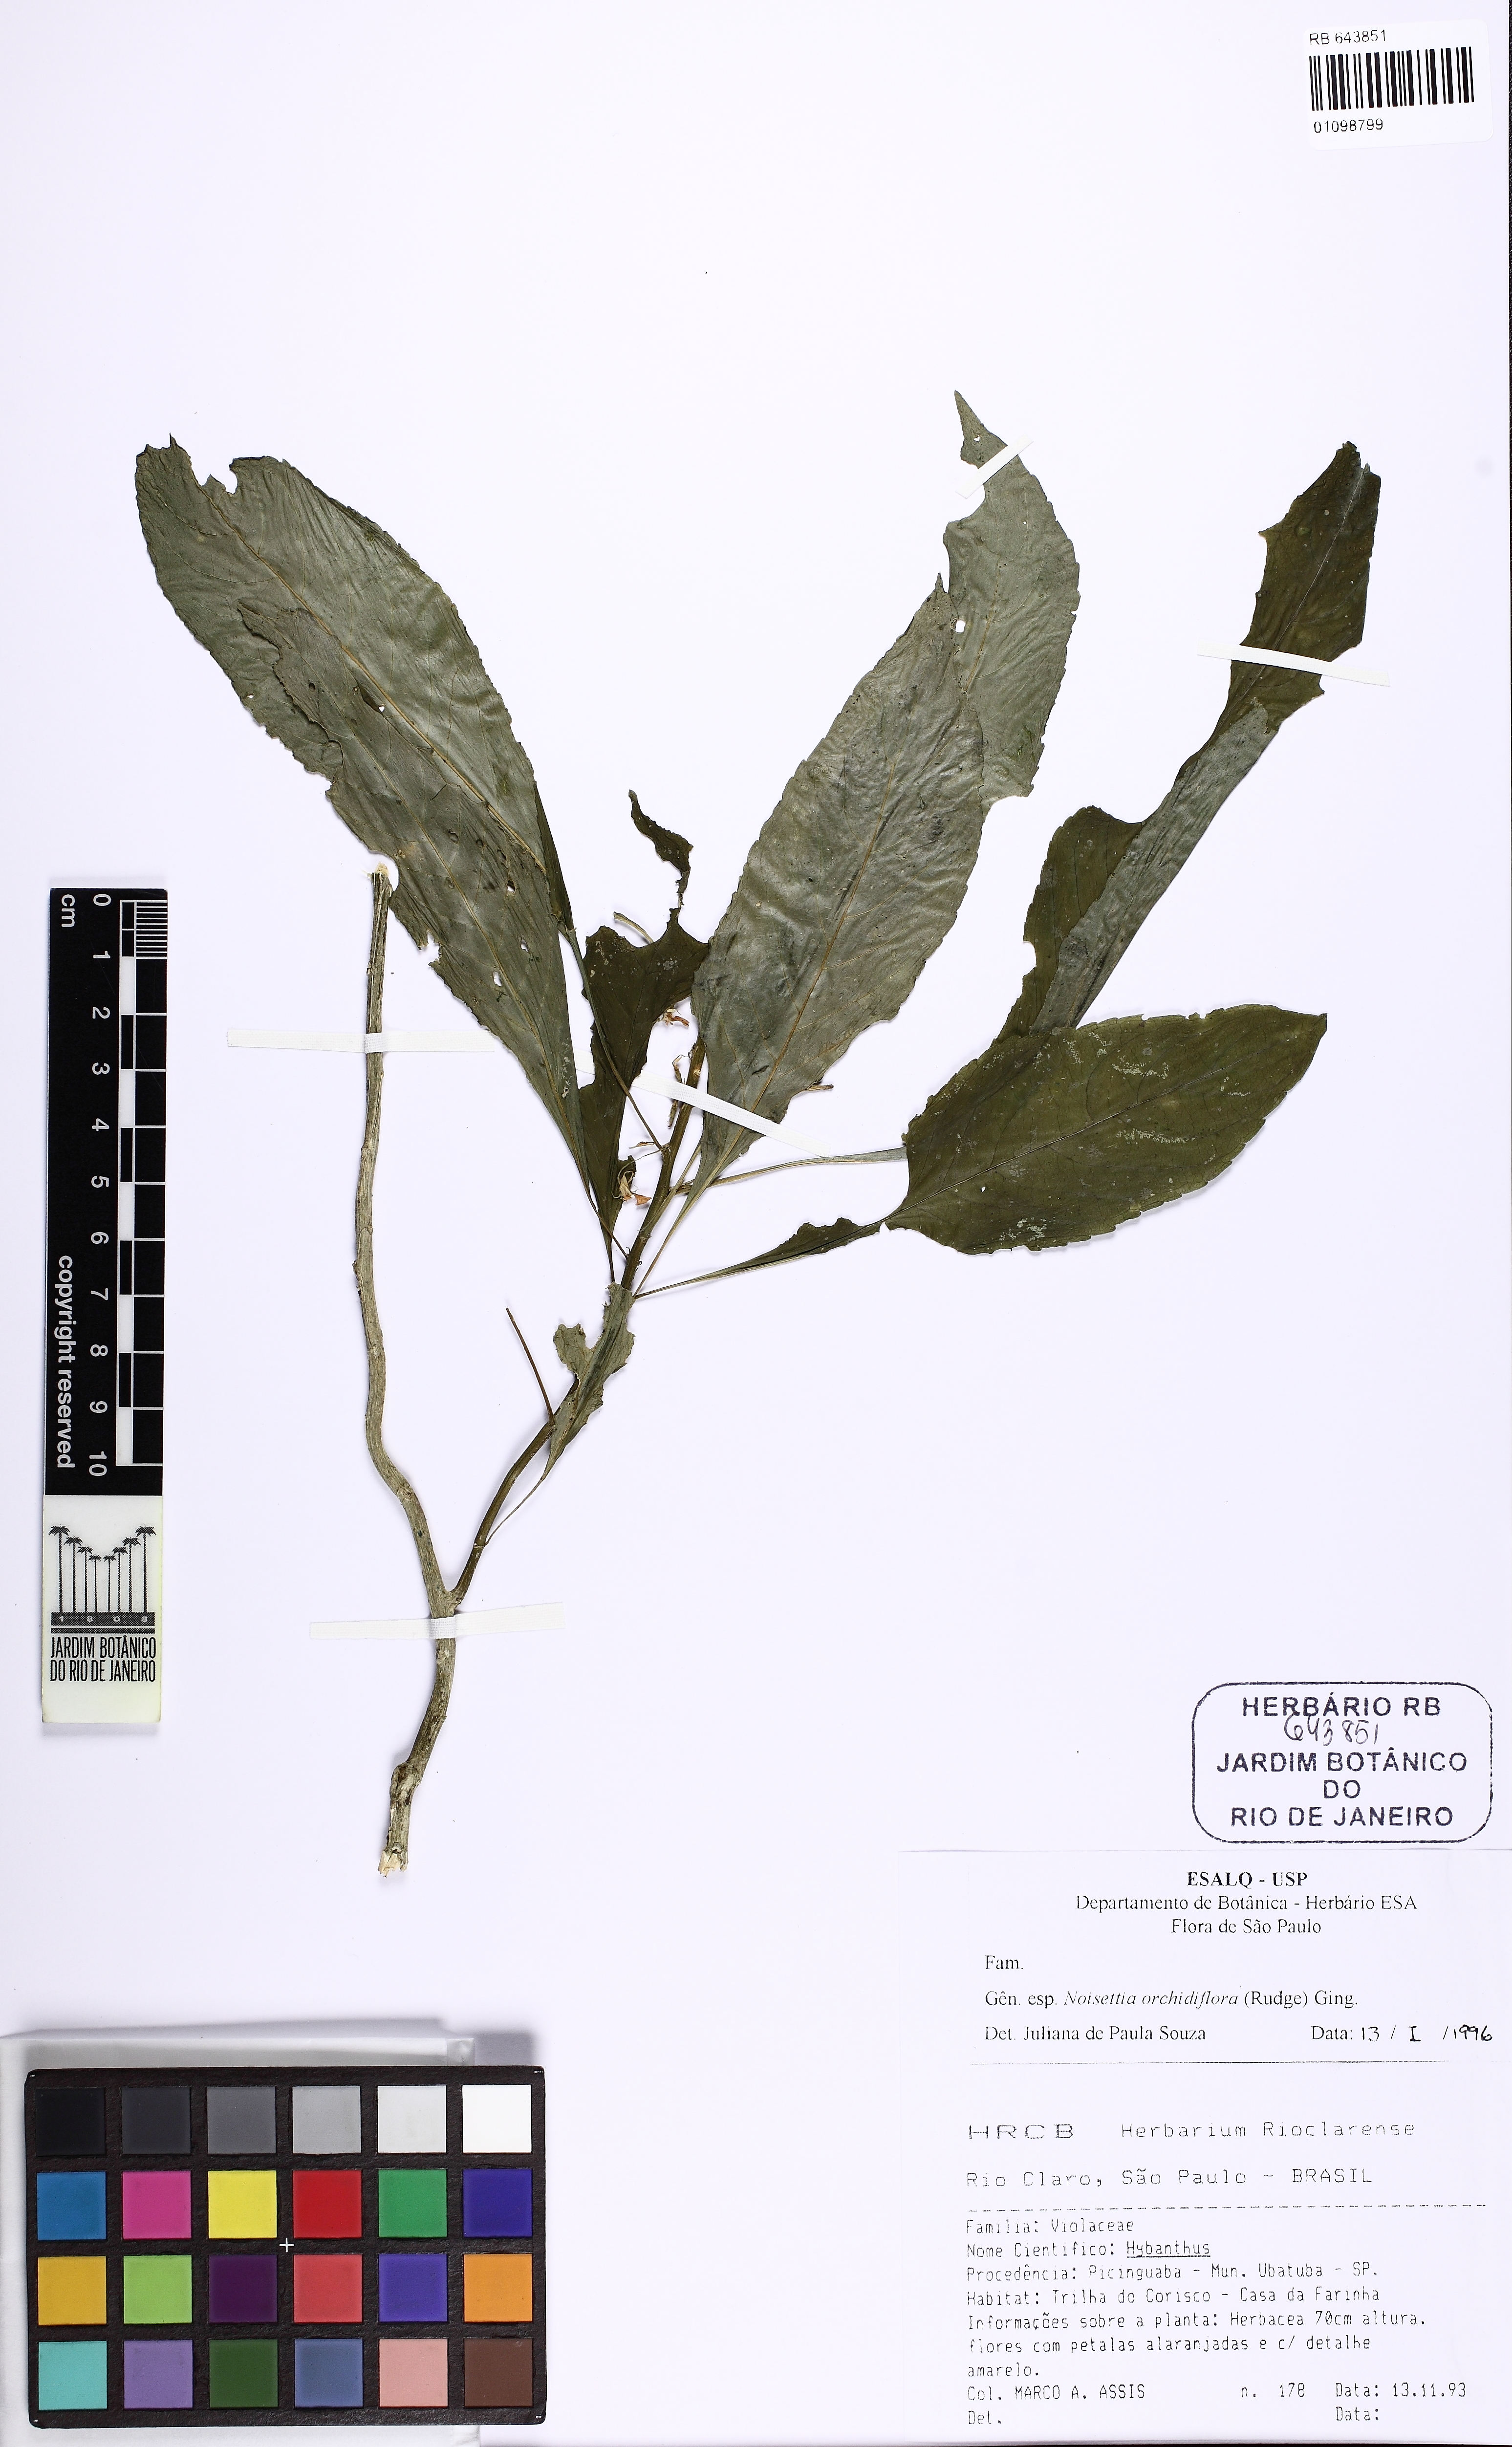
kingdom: Plantae
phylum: Tracheophyta
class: Magnoliopsida
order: Malpighiales
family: Violaceae
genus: Noisettia
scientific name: Noisettia orchidiflora
